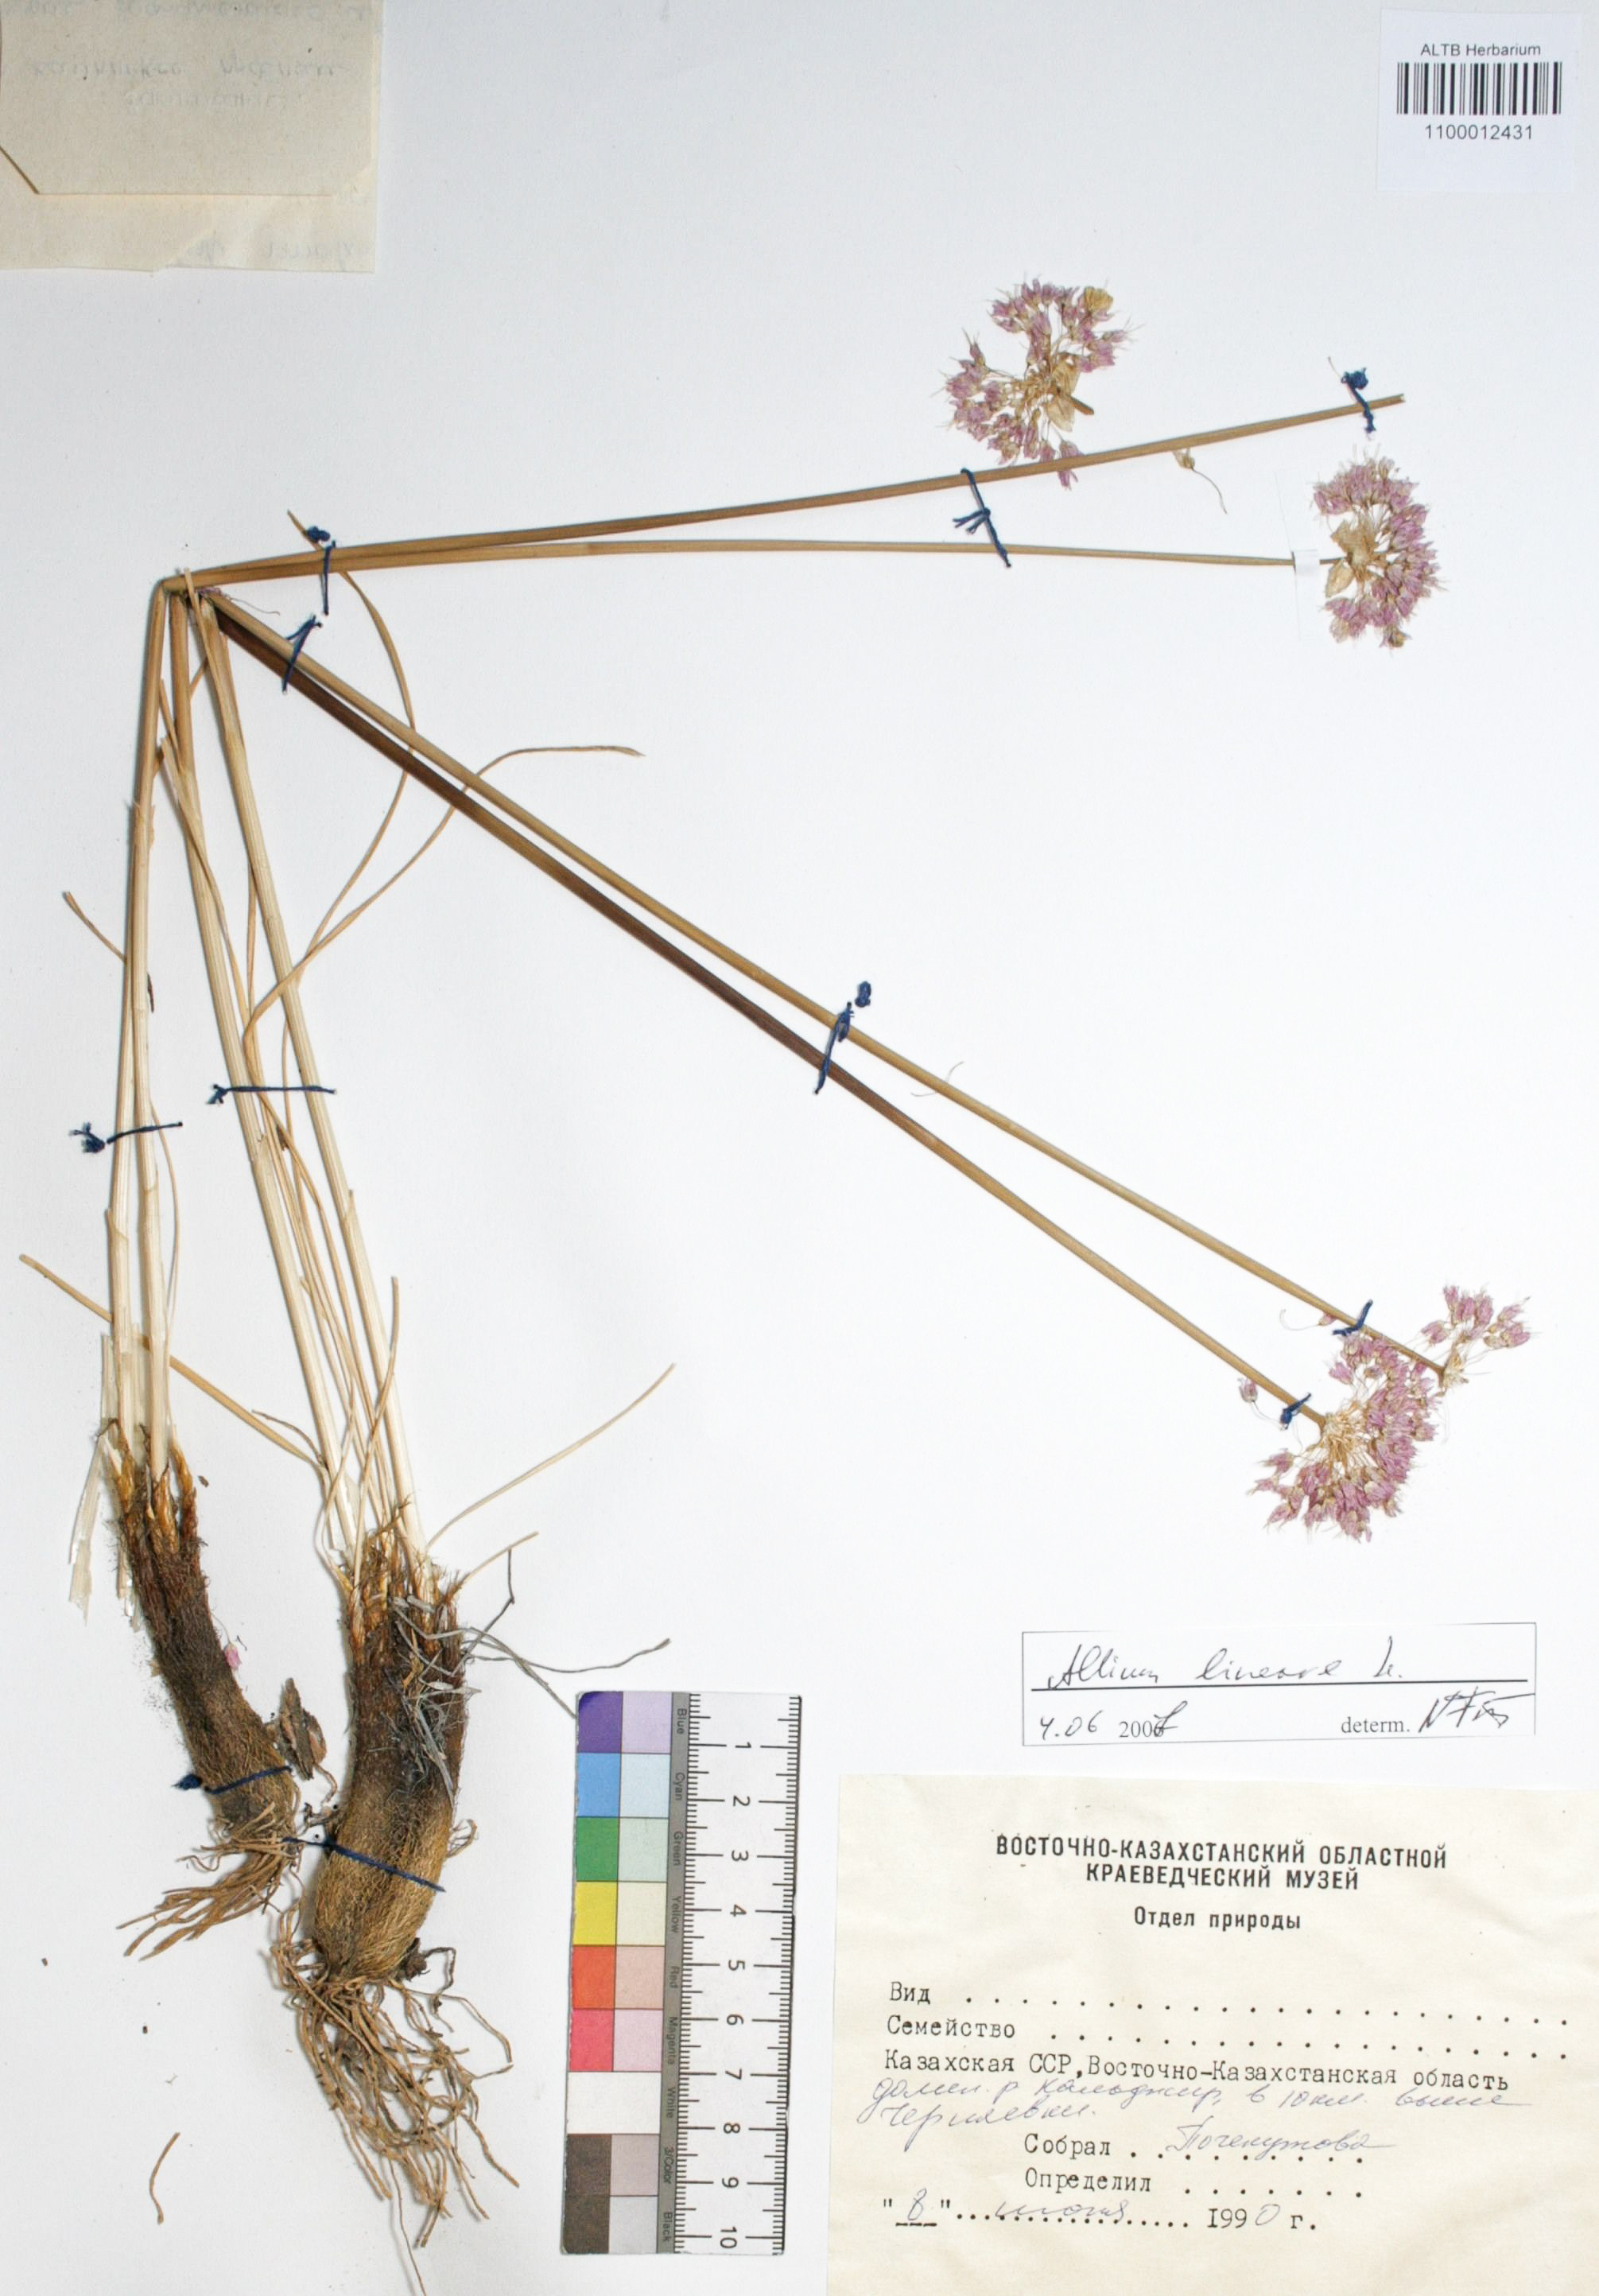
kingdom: Plantae
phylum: Tracheophyta
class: Liliopsida
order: Asparagales
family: Amaryllidaceae
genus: Allium
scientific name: Allium lineare
